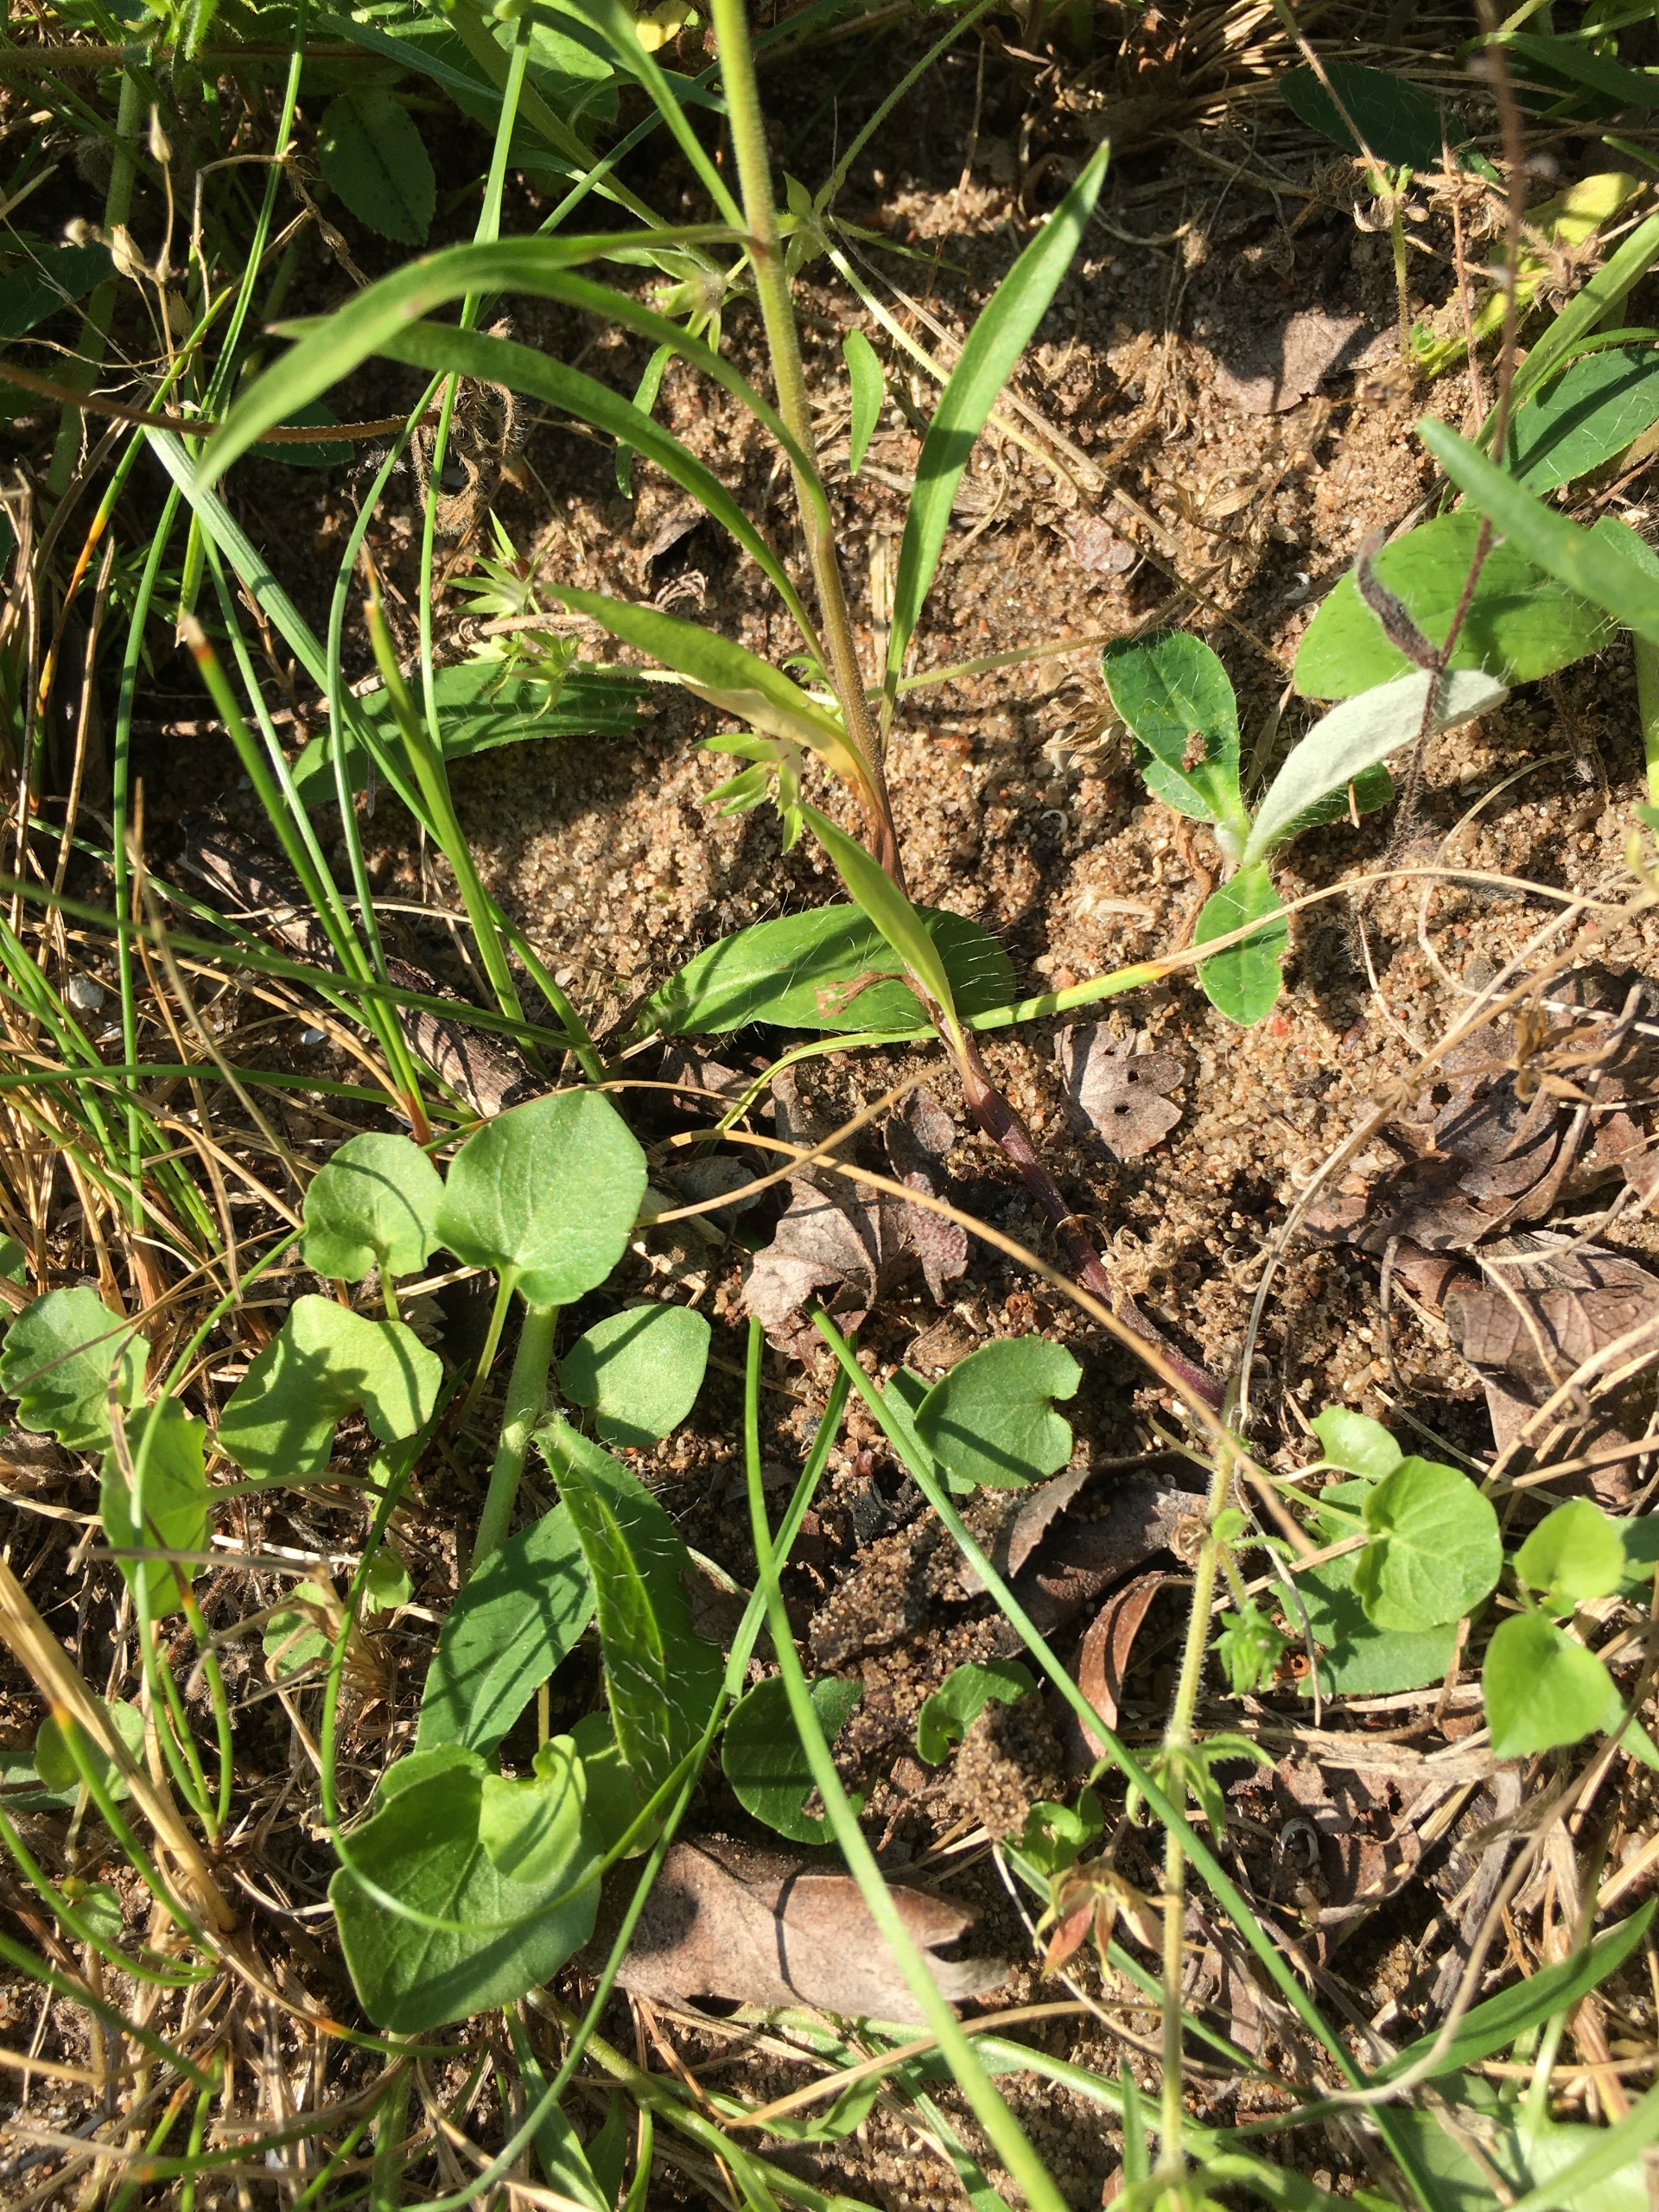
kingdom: Plantae
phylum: Tracheophyta
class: Magnoliopsida
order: Asterales
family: Campanulaceae
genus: Campanula
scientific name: Campanula rotundifolia
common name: Liden klokke
